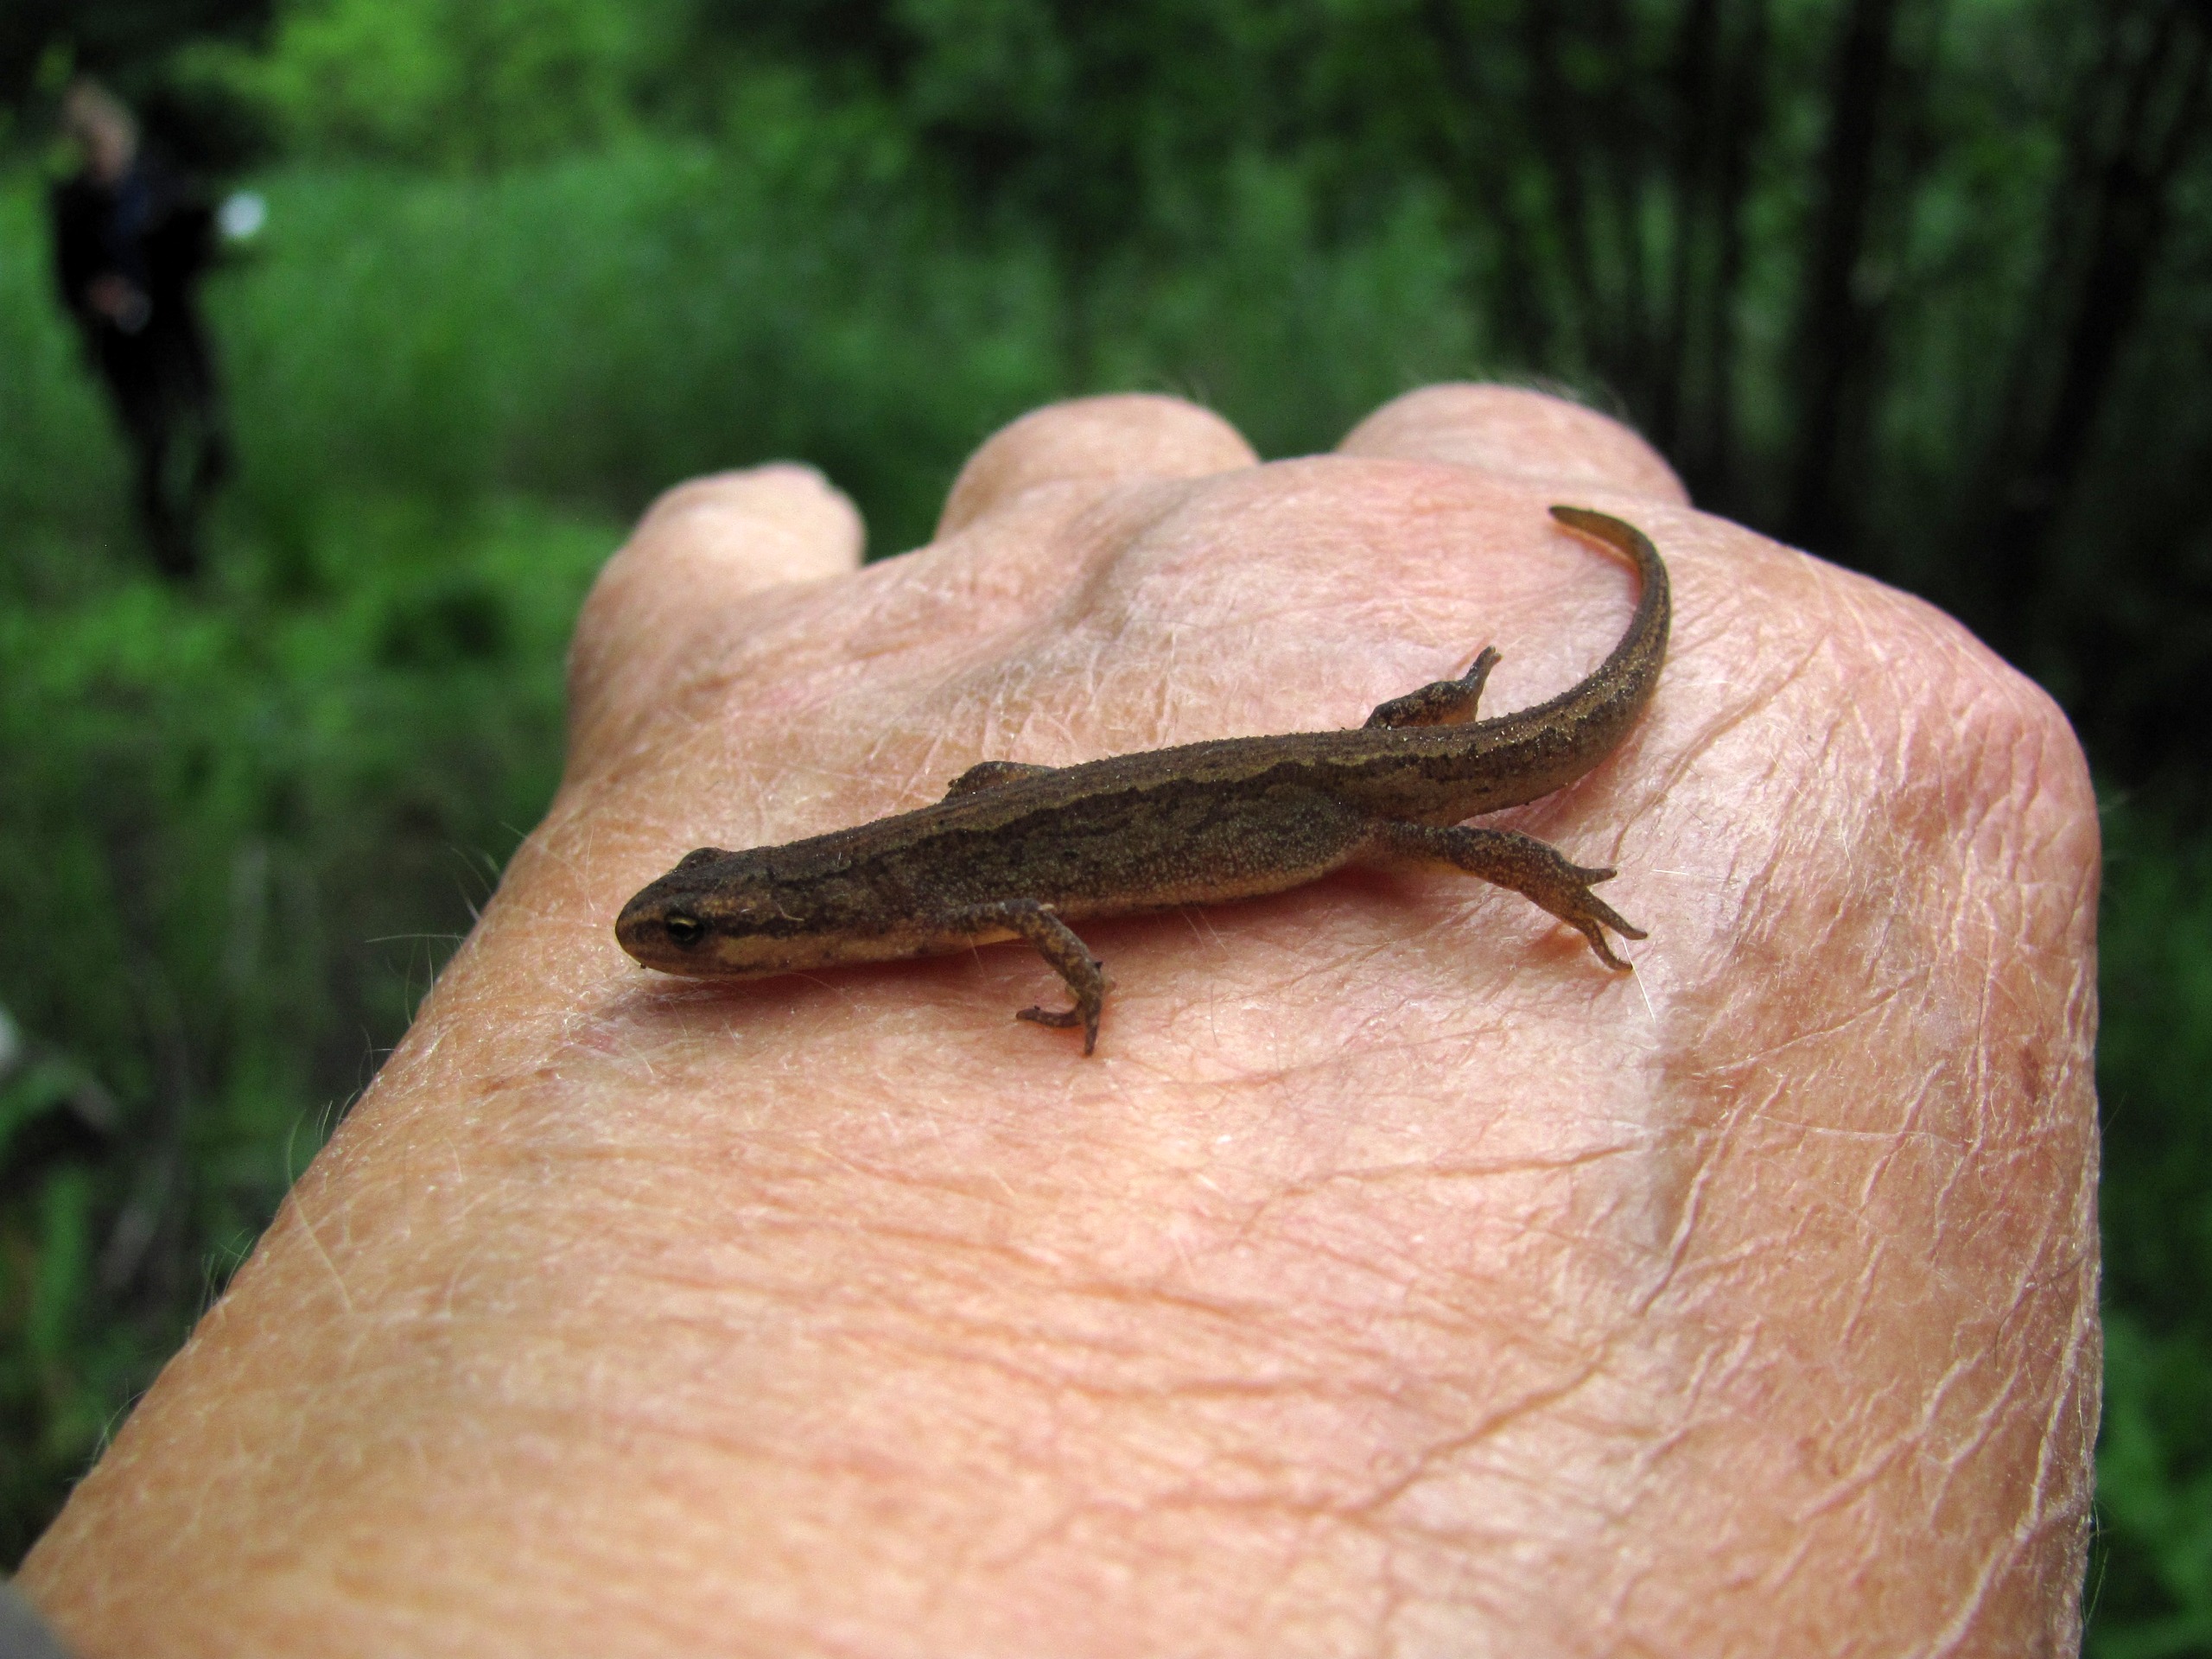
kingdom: Animalia
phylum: Chordata
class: Amphibia
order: Caudata
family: Salamandridae
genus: Lissotriton
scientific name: Lissotriton vulgaris
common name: Lille vandsalamander
